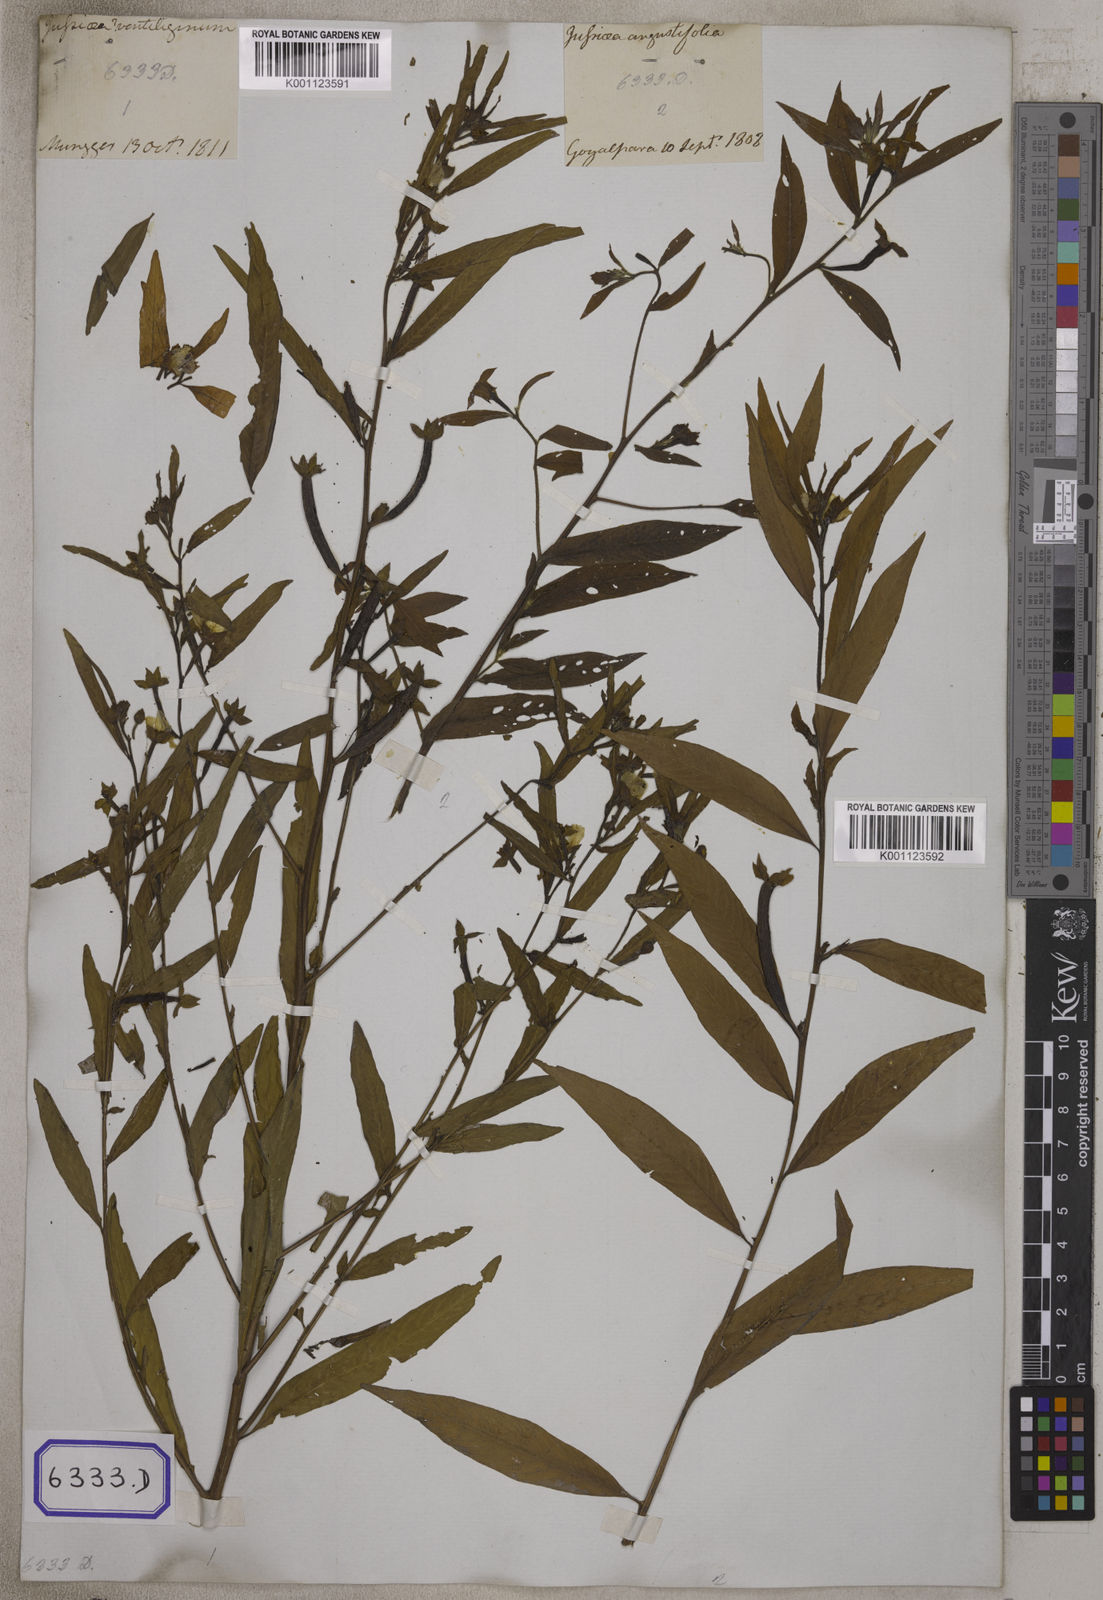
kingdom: Plantae
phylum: Tracheophyta
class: Magnoliopsida
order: Myrtales
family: Onagraceae
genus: Ludwigia
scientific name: Ludwigia octovalvis
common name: Water-primrose
